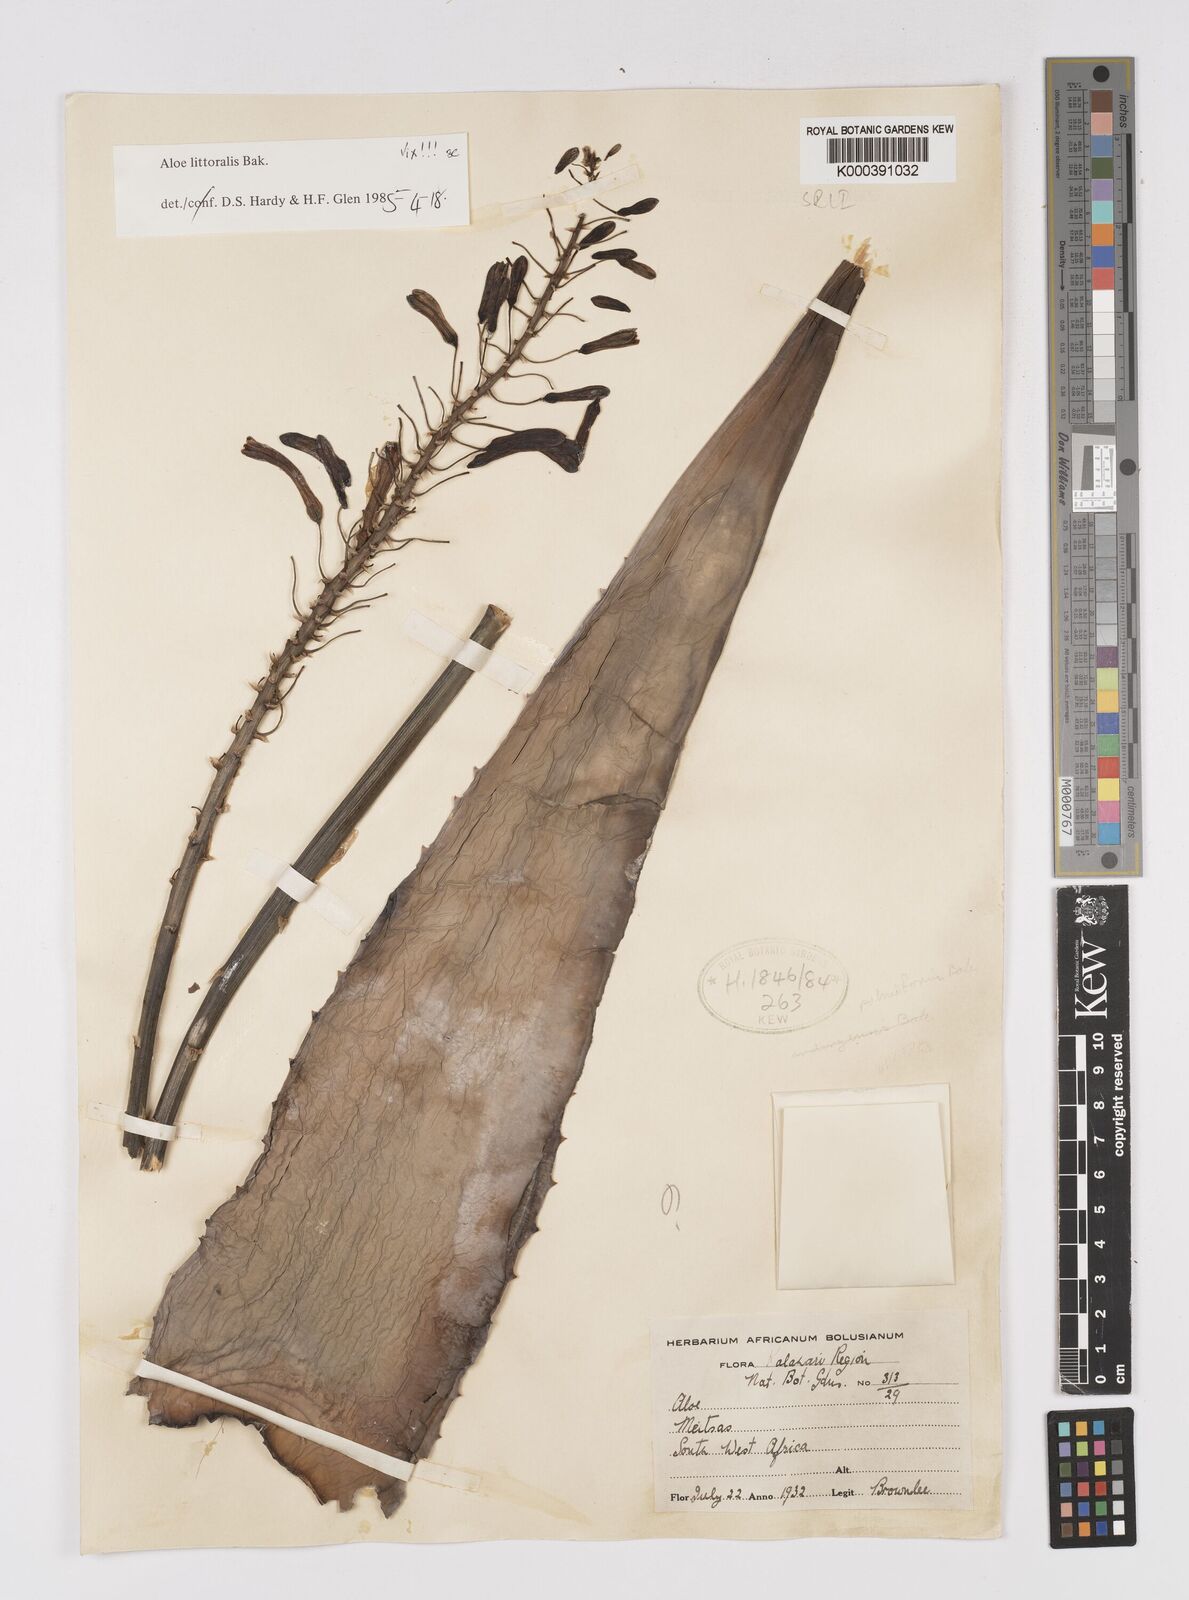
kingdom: Plantae
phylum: Tracheophyta
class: Liliopsida
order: Asparagales
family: Asphodelaceae
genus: Aloe
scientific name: Aloe zebrina
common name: Zebra-leaf aloe
